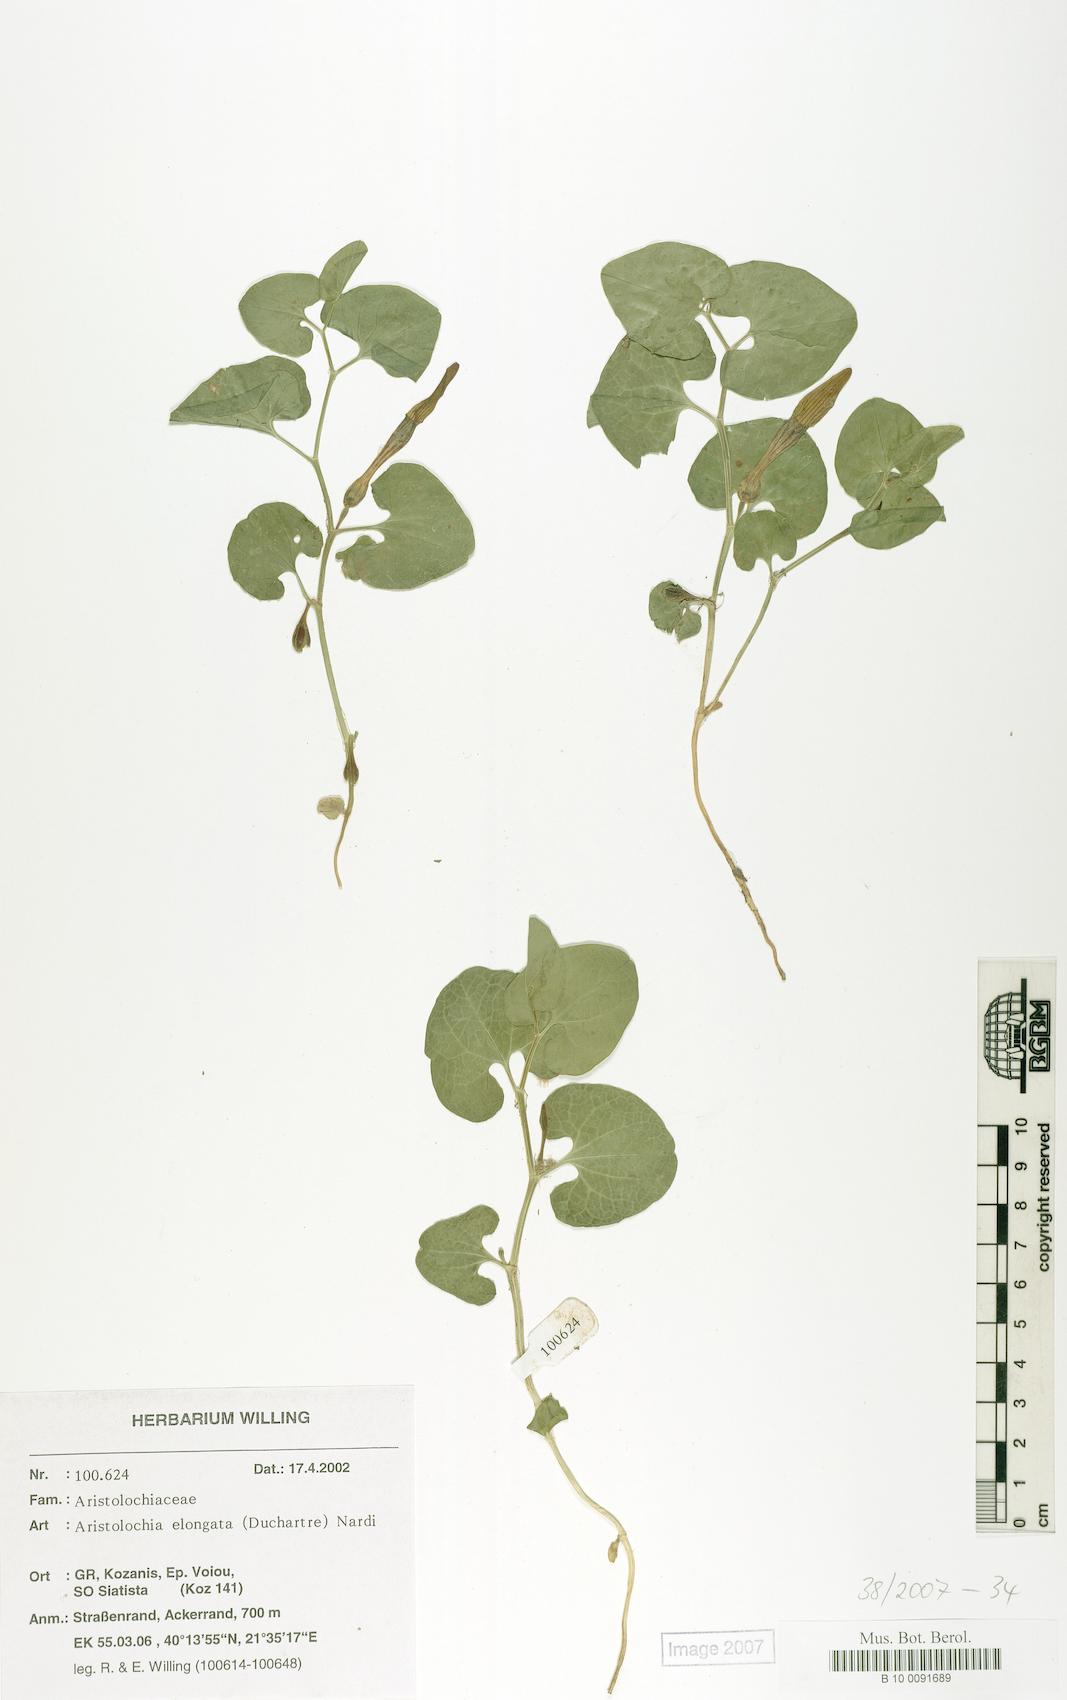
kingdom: Plantae
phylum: Tracheophyta
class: Magnoliopsida
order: Piperales
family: Aristolochiaceae
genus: Aristolochia
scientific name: Aristolochia nardiana
